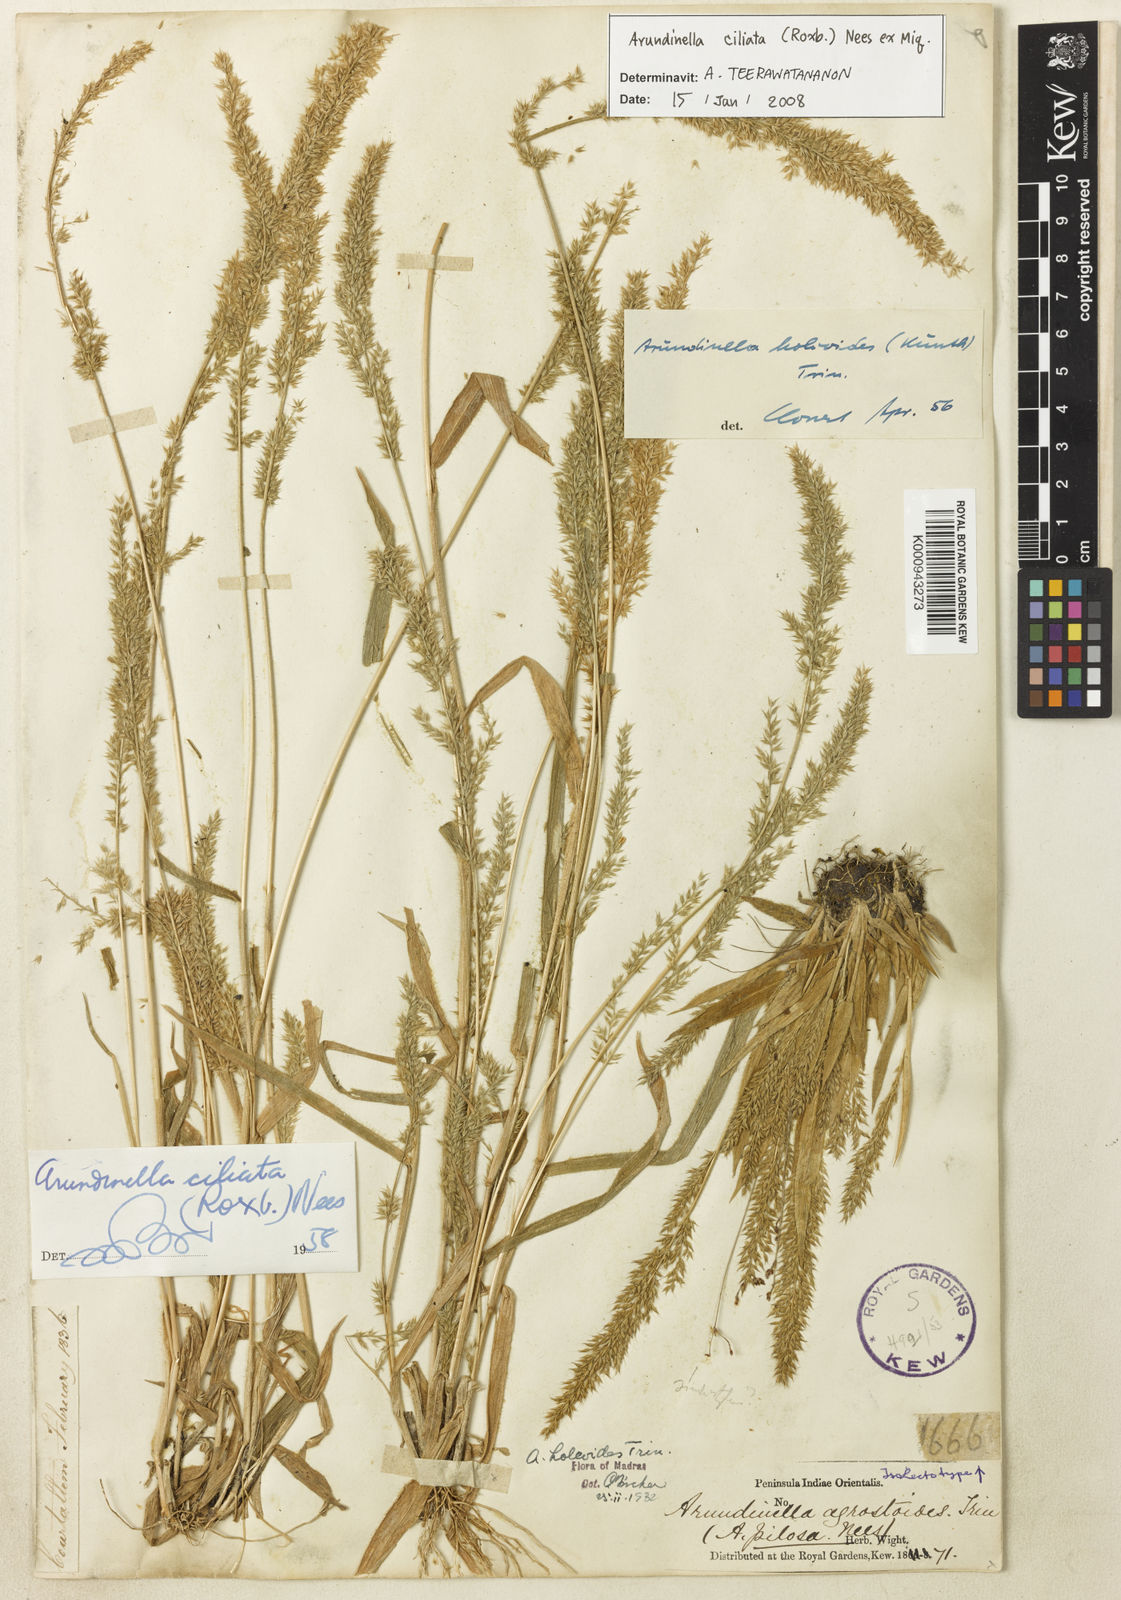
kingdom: Plantae
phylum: Tracheophyta
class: Liliopsida
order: Poales
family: Poaceae
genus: Arundinella
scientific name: Arundinella ciliata
